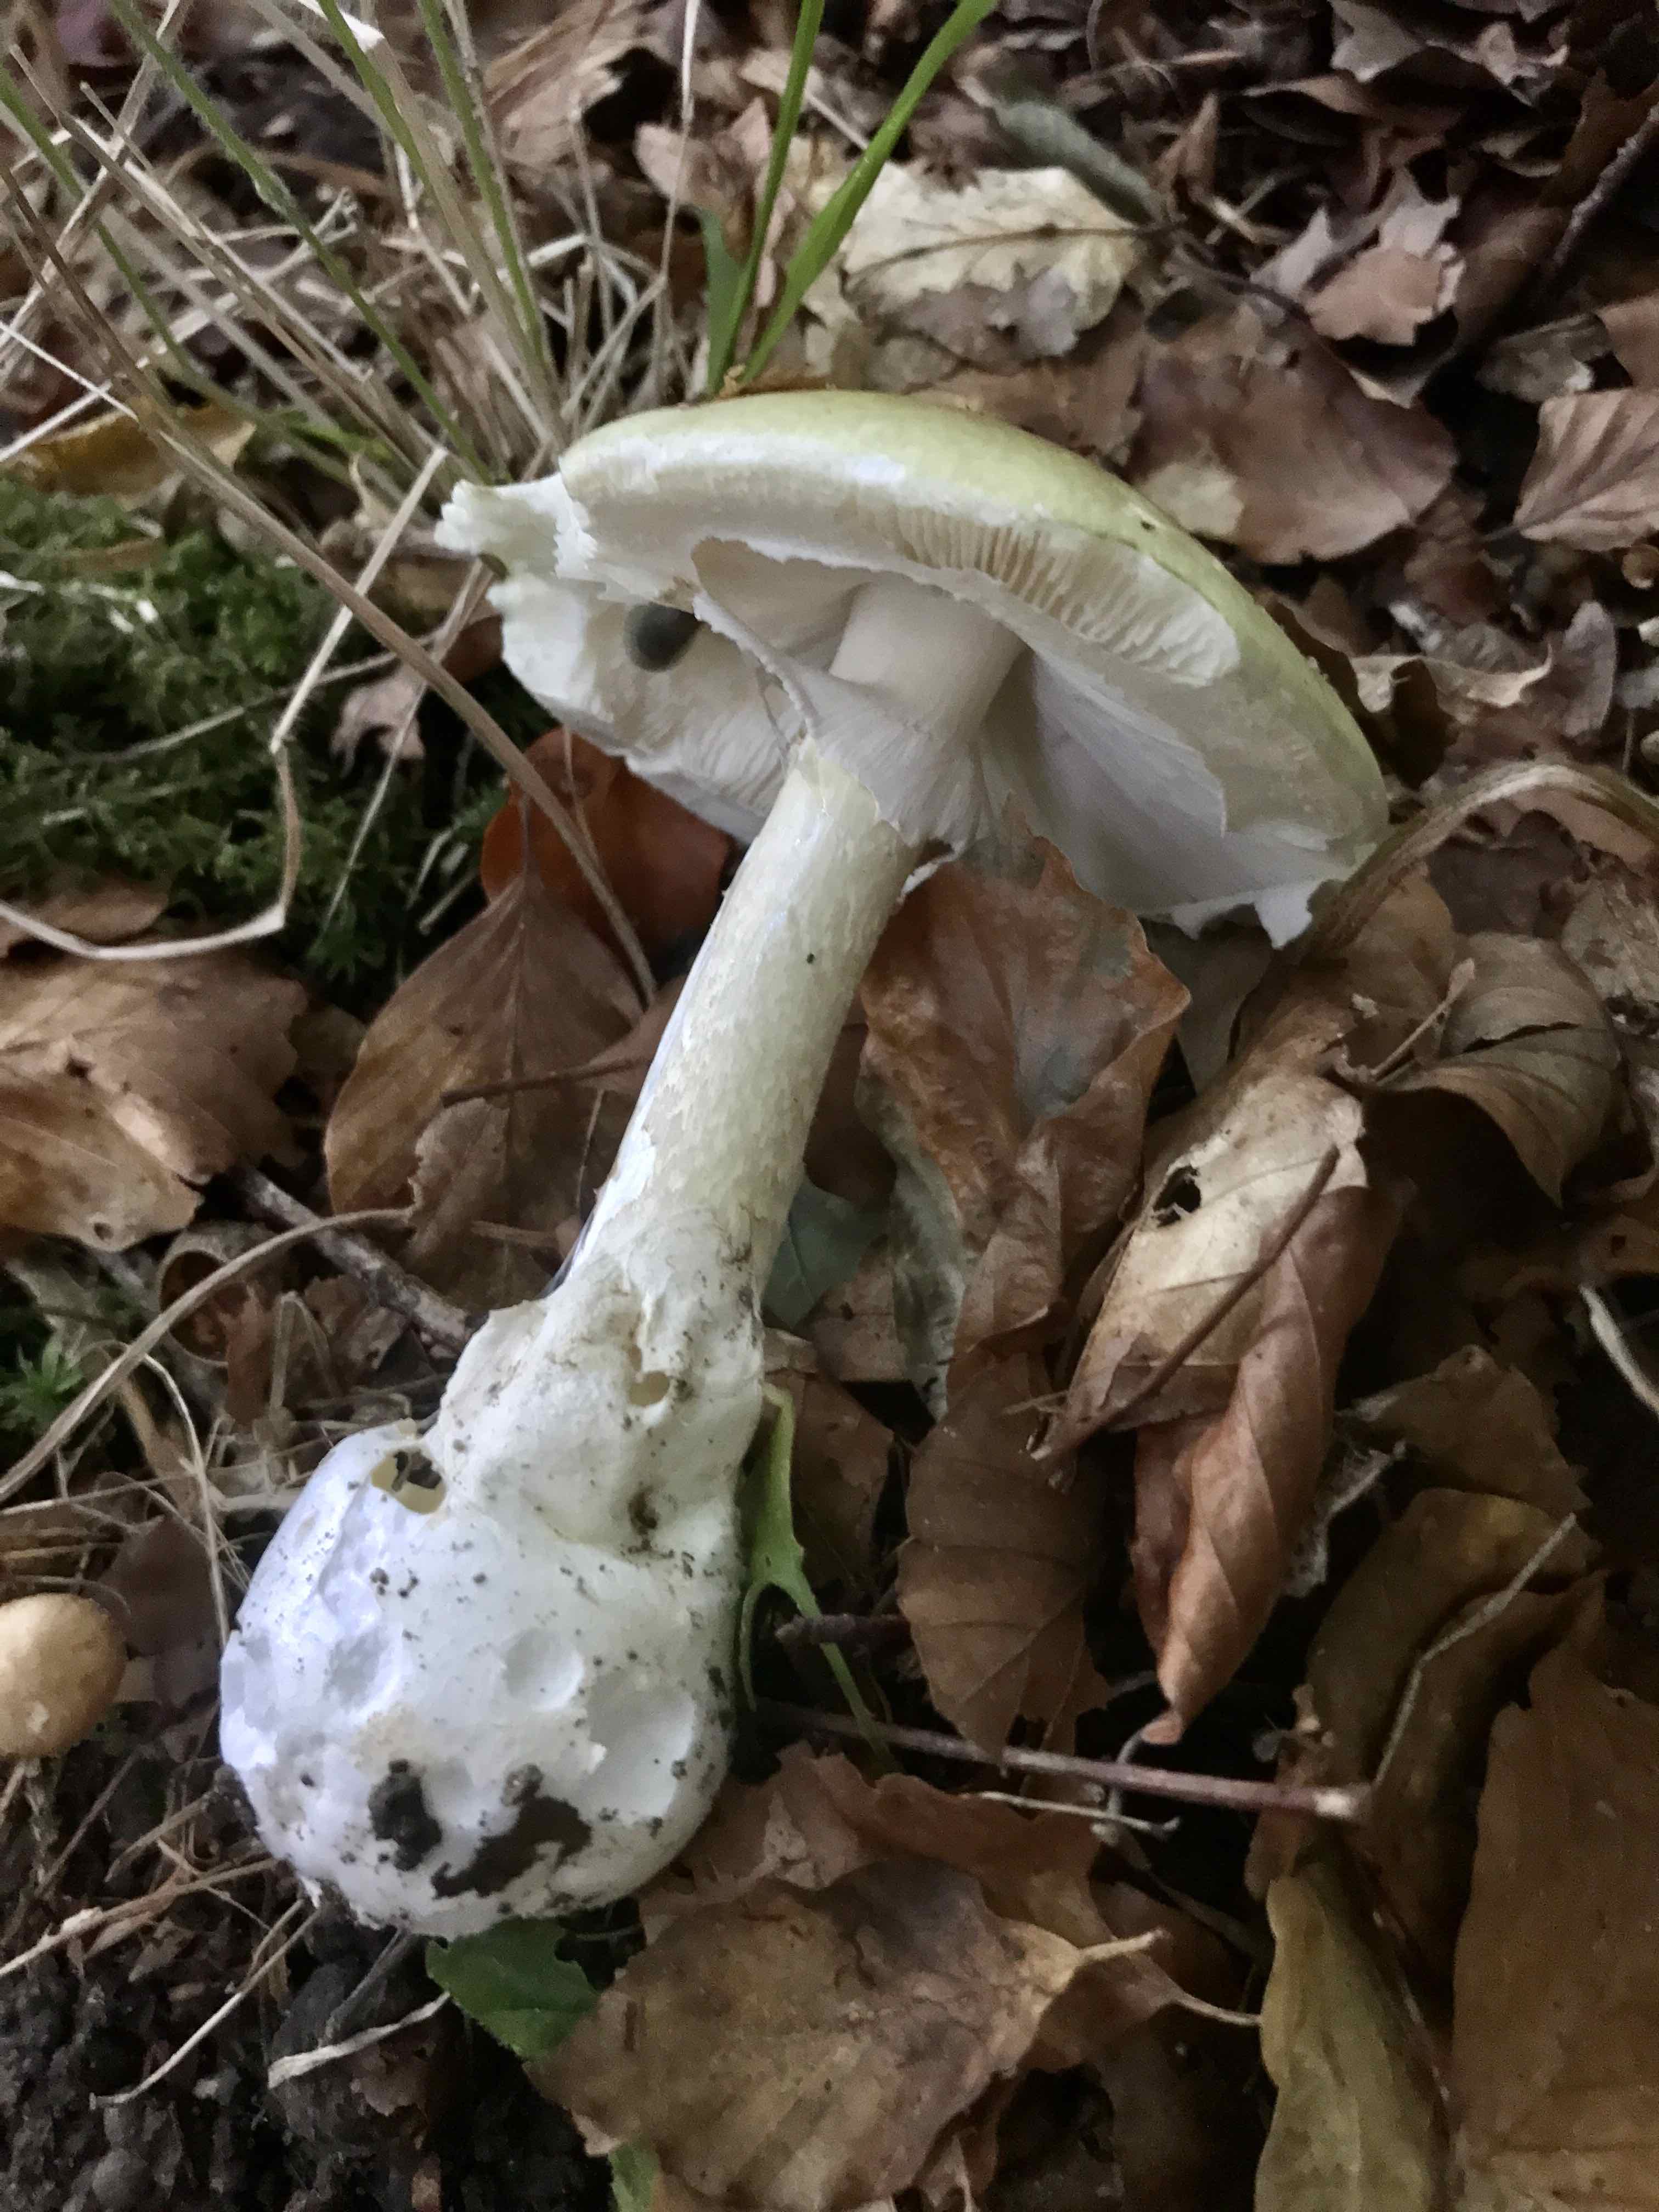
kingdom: Fungi
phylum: Basidiomycota
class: Agaricomycetes
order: Agaricales
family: Amanitaceae
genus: Amanita
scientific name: Amanita phalloides
